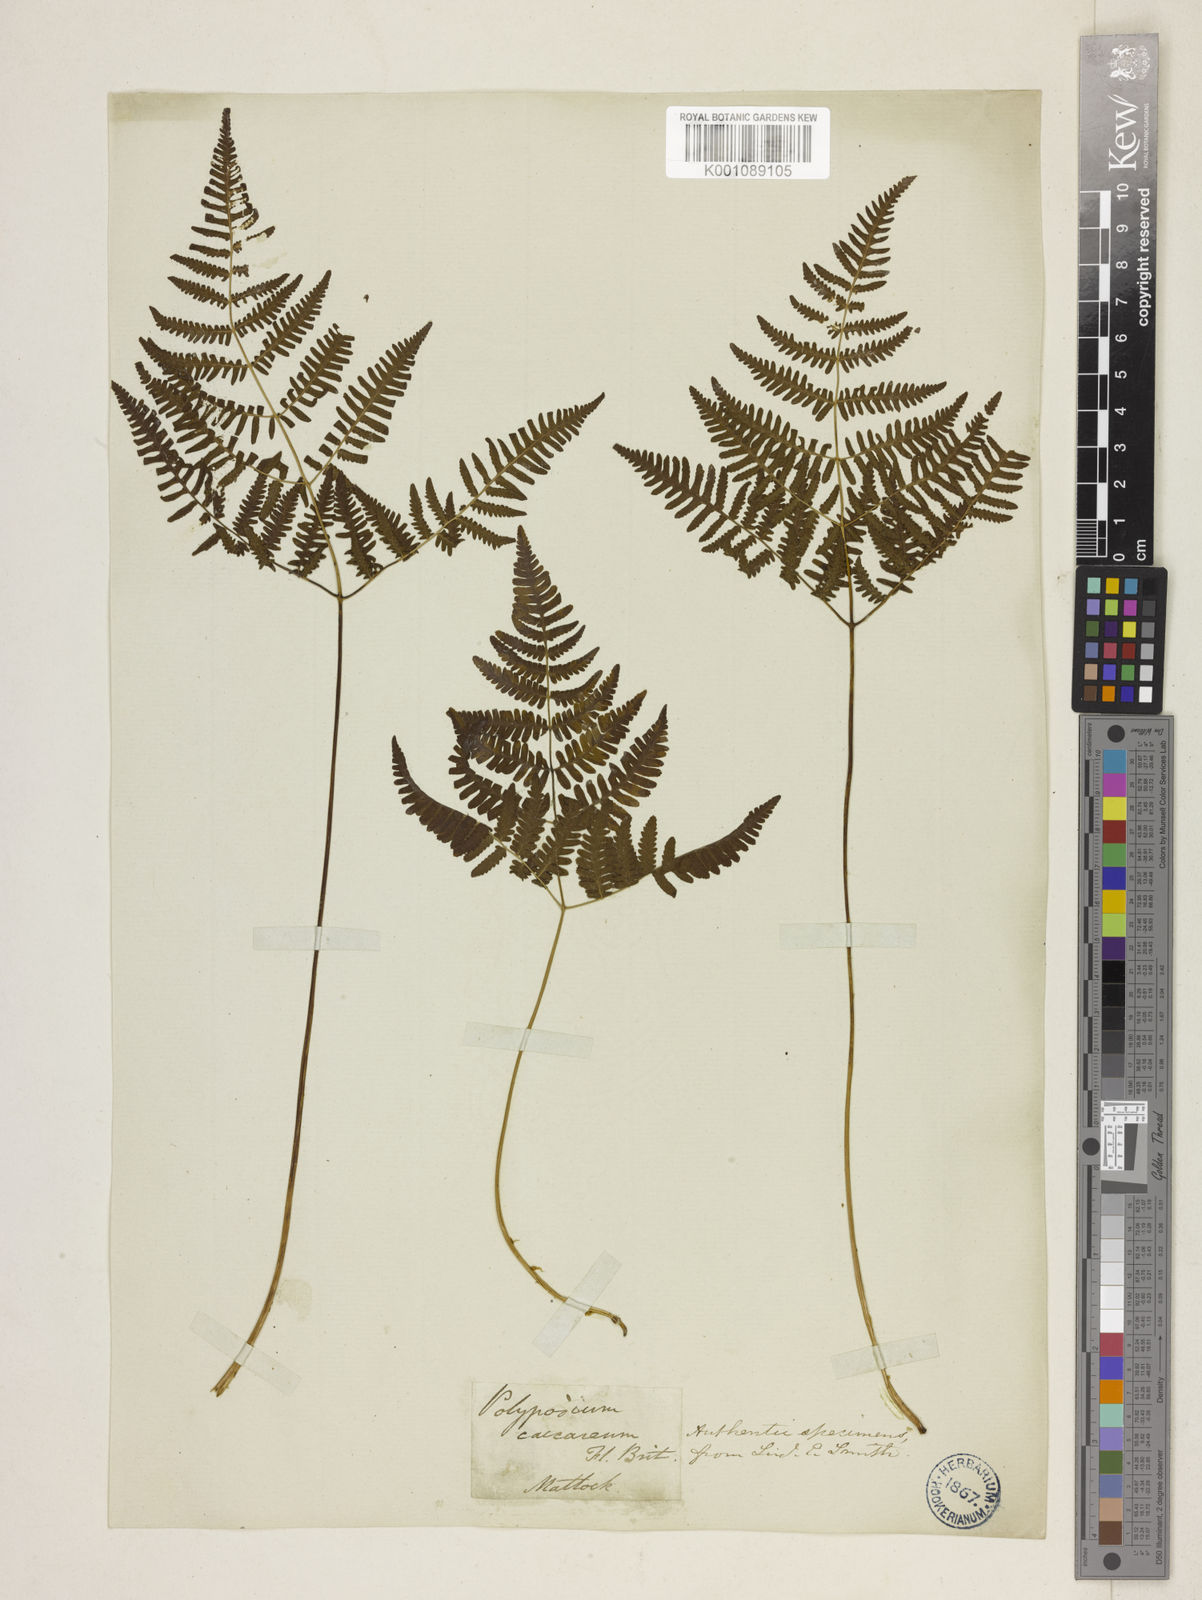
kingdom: Plantae
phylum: Tracheophyta
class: Polypodiopsida
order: Polypodiales
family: Cystopteridaceae
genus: Gymnocarpium
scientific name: Gymnocarpium robertianum
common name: Limestone fern
